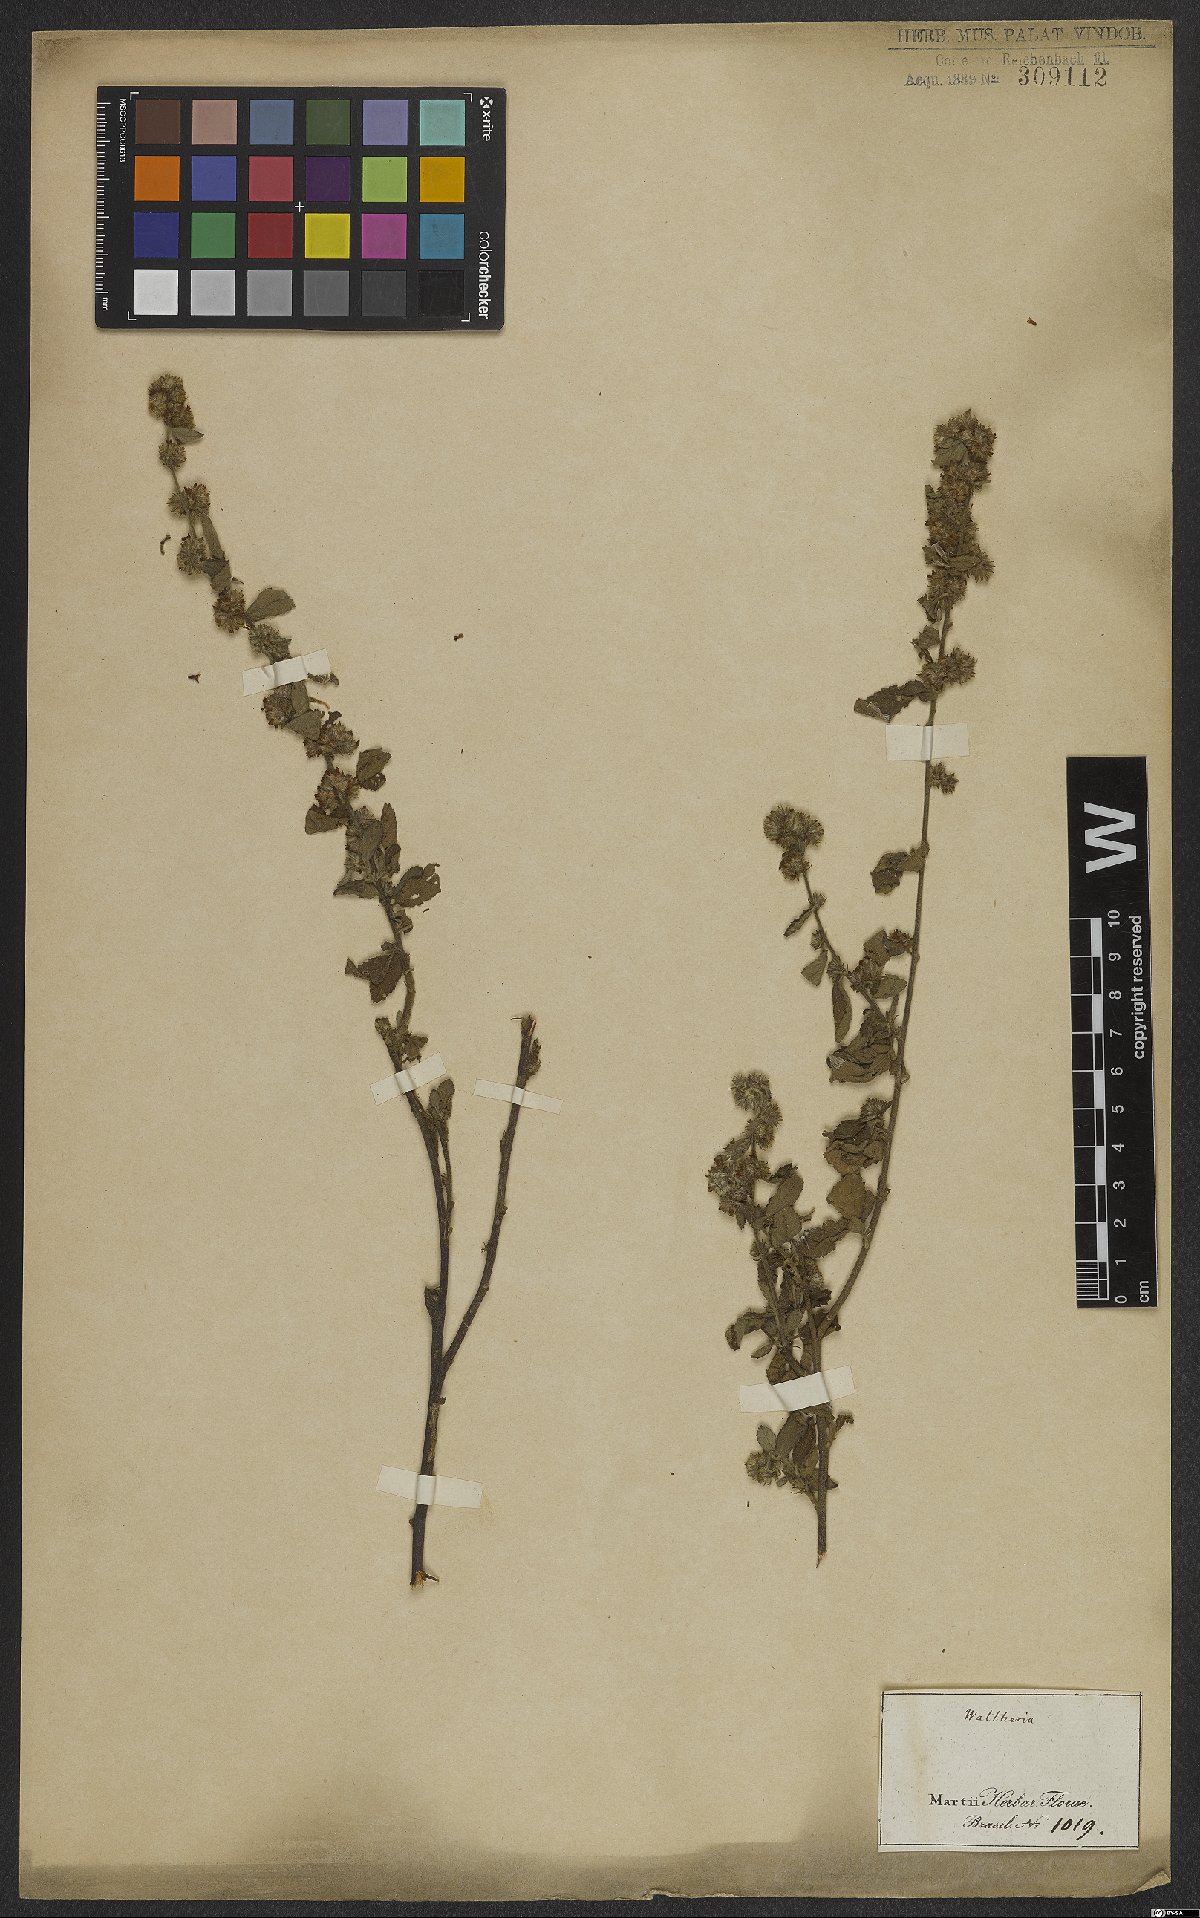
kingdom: Plantae
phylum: Tracheophyta
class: Magnoliopsida
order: Malvales
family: Malvaceae
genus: Waltheria
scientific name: Waltheria indica
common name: Leather-coat
